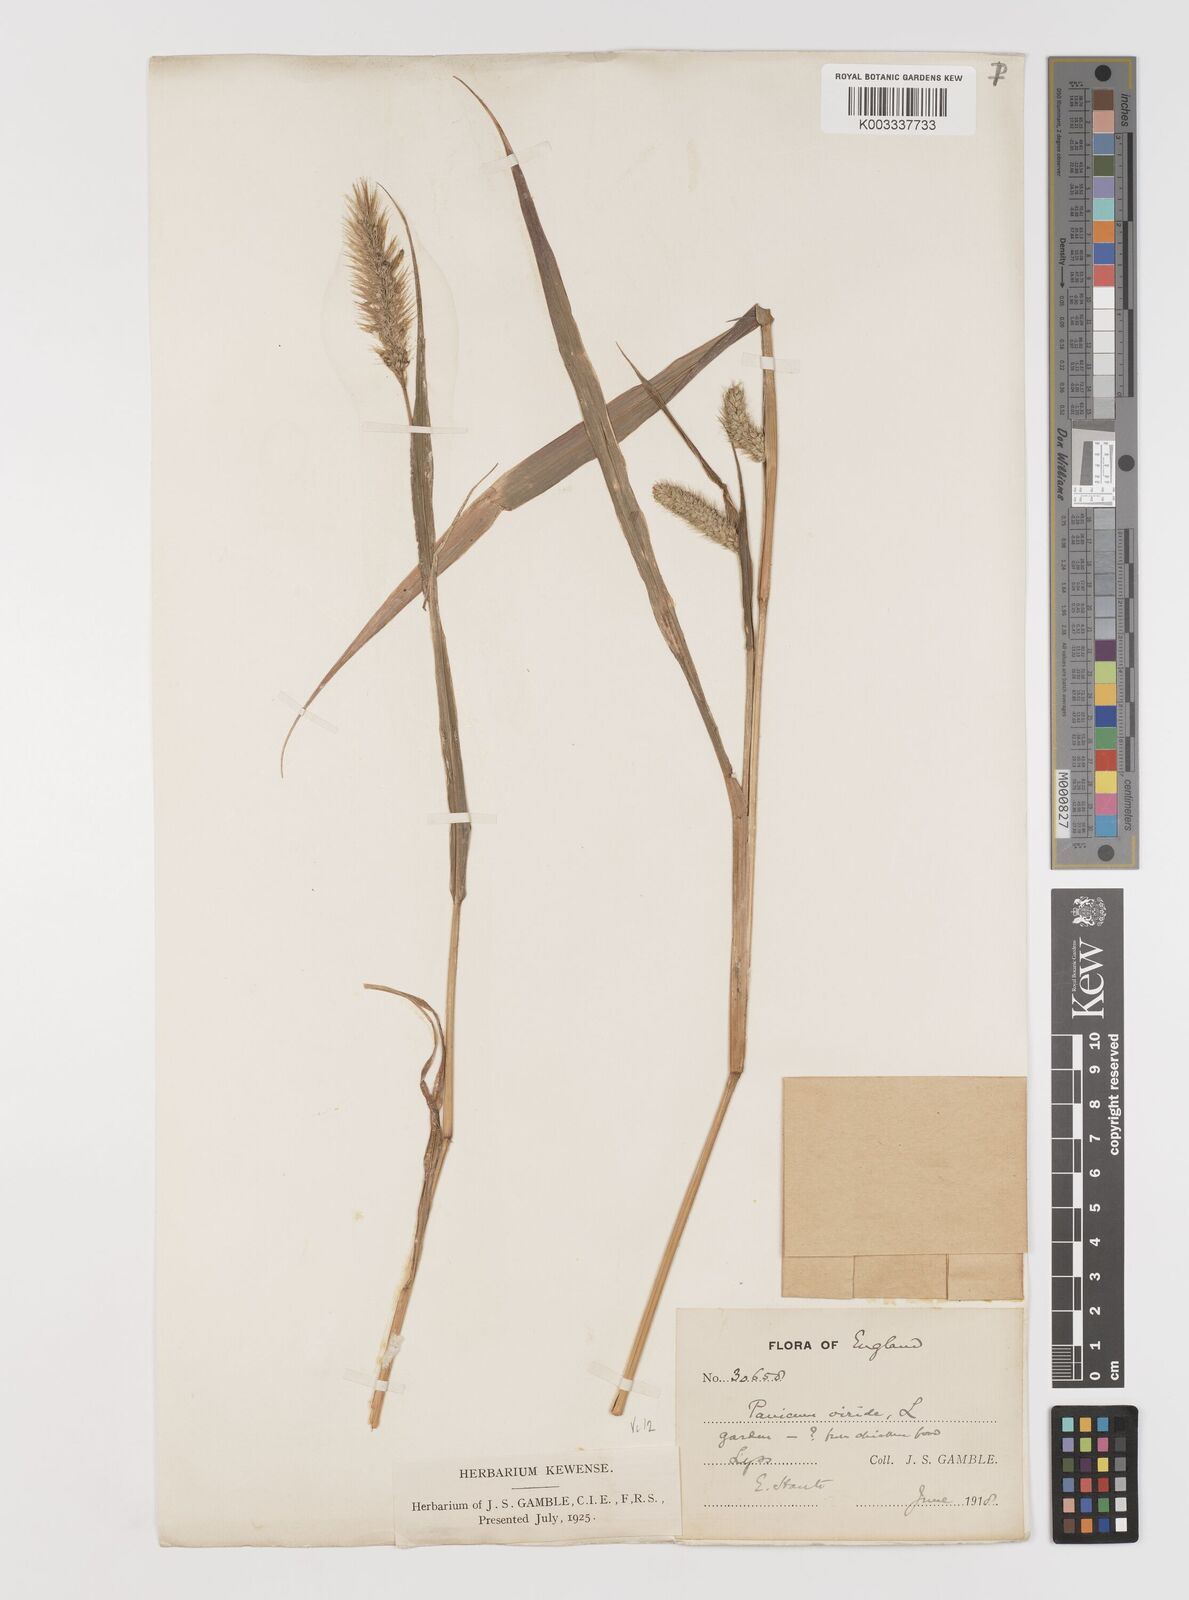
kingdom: Plantae
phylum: Tracheophyta
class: Liliopsida
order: Poales
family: Poaceae
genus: Setaria
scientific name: Setaria viridis
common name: Green bristlegrass
